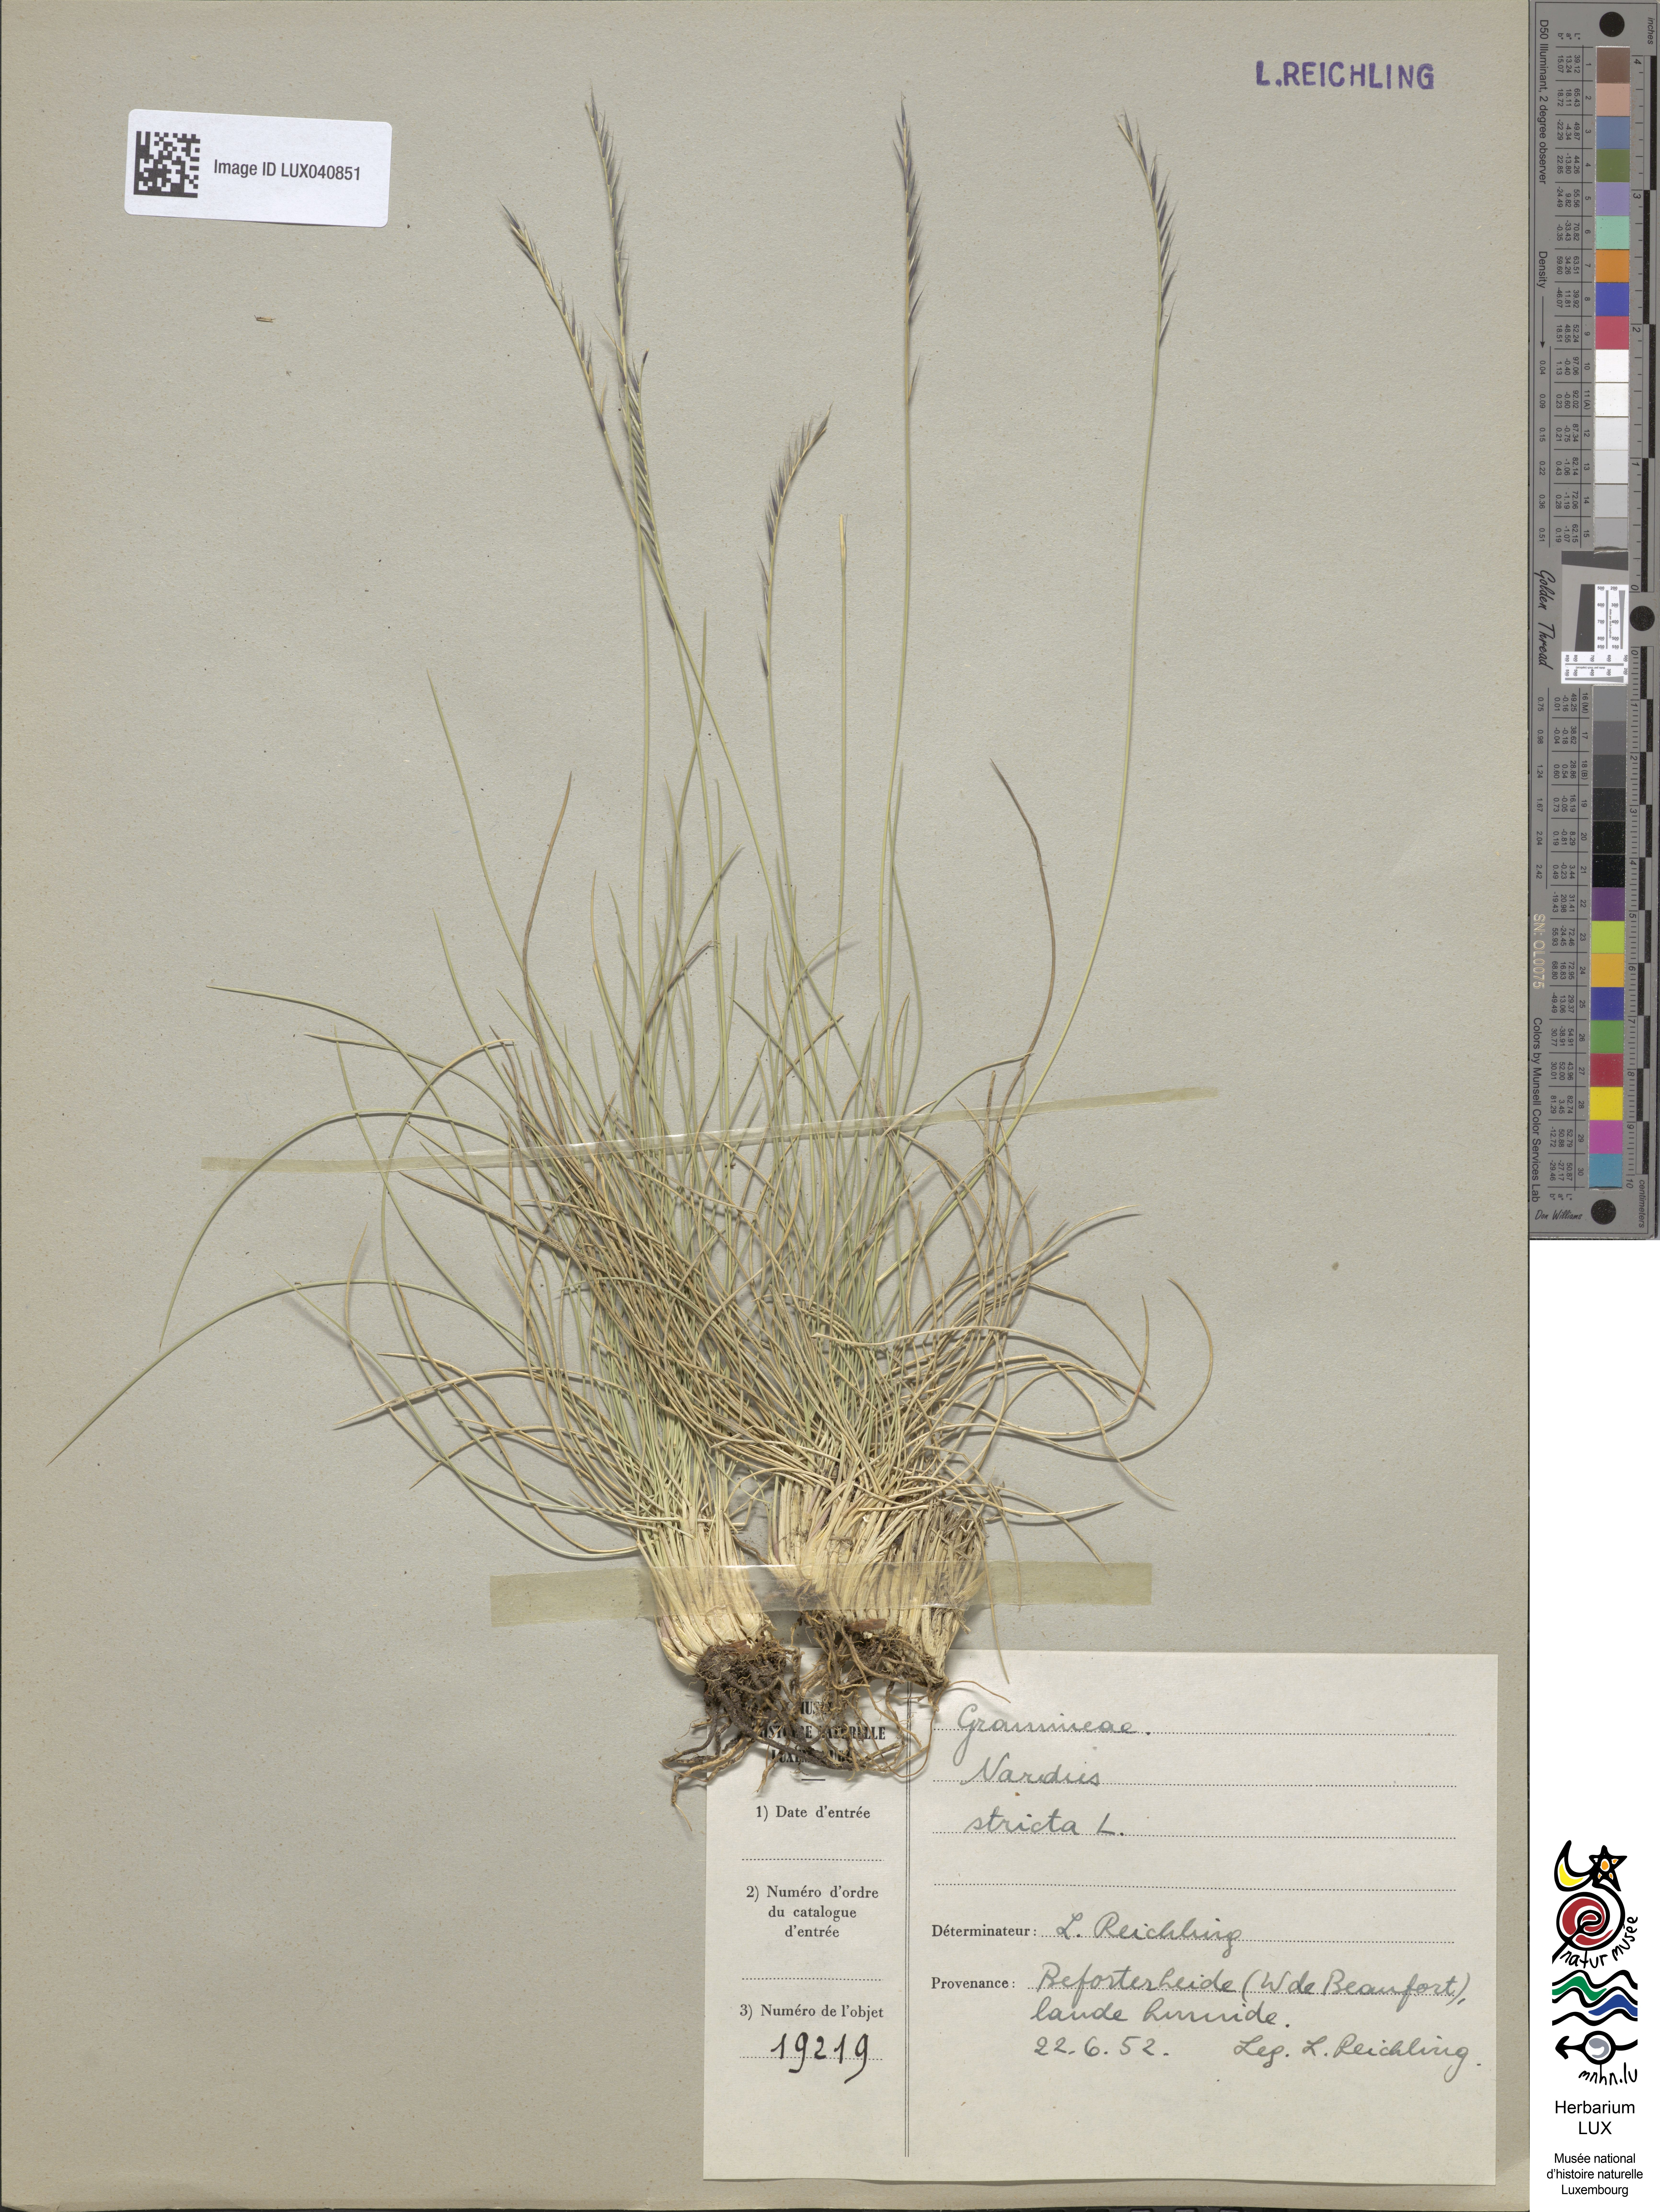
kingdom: Plantae
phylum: Tracheophyta
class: Liliopsida
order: Poales
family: Poaceae
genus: Nardus
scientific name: Nardus stricta
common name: Mat-grass
